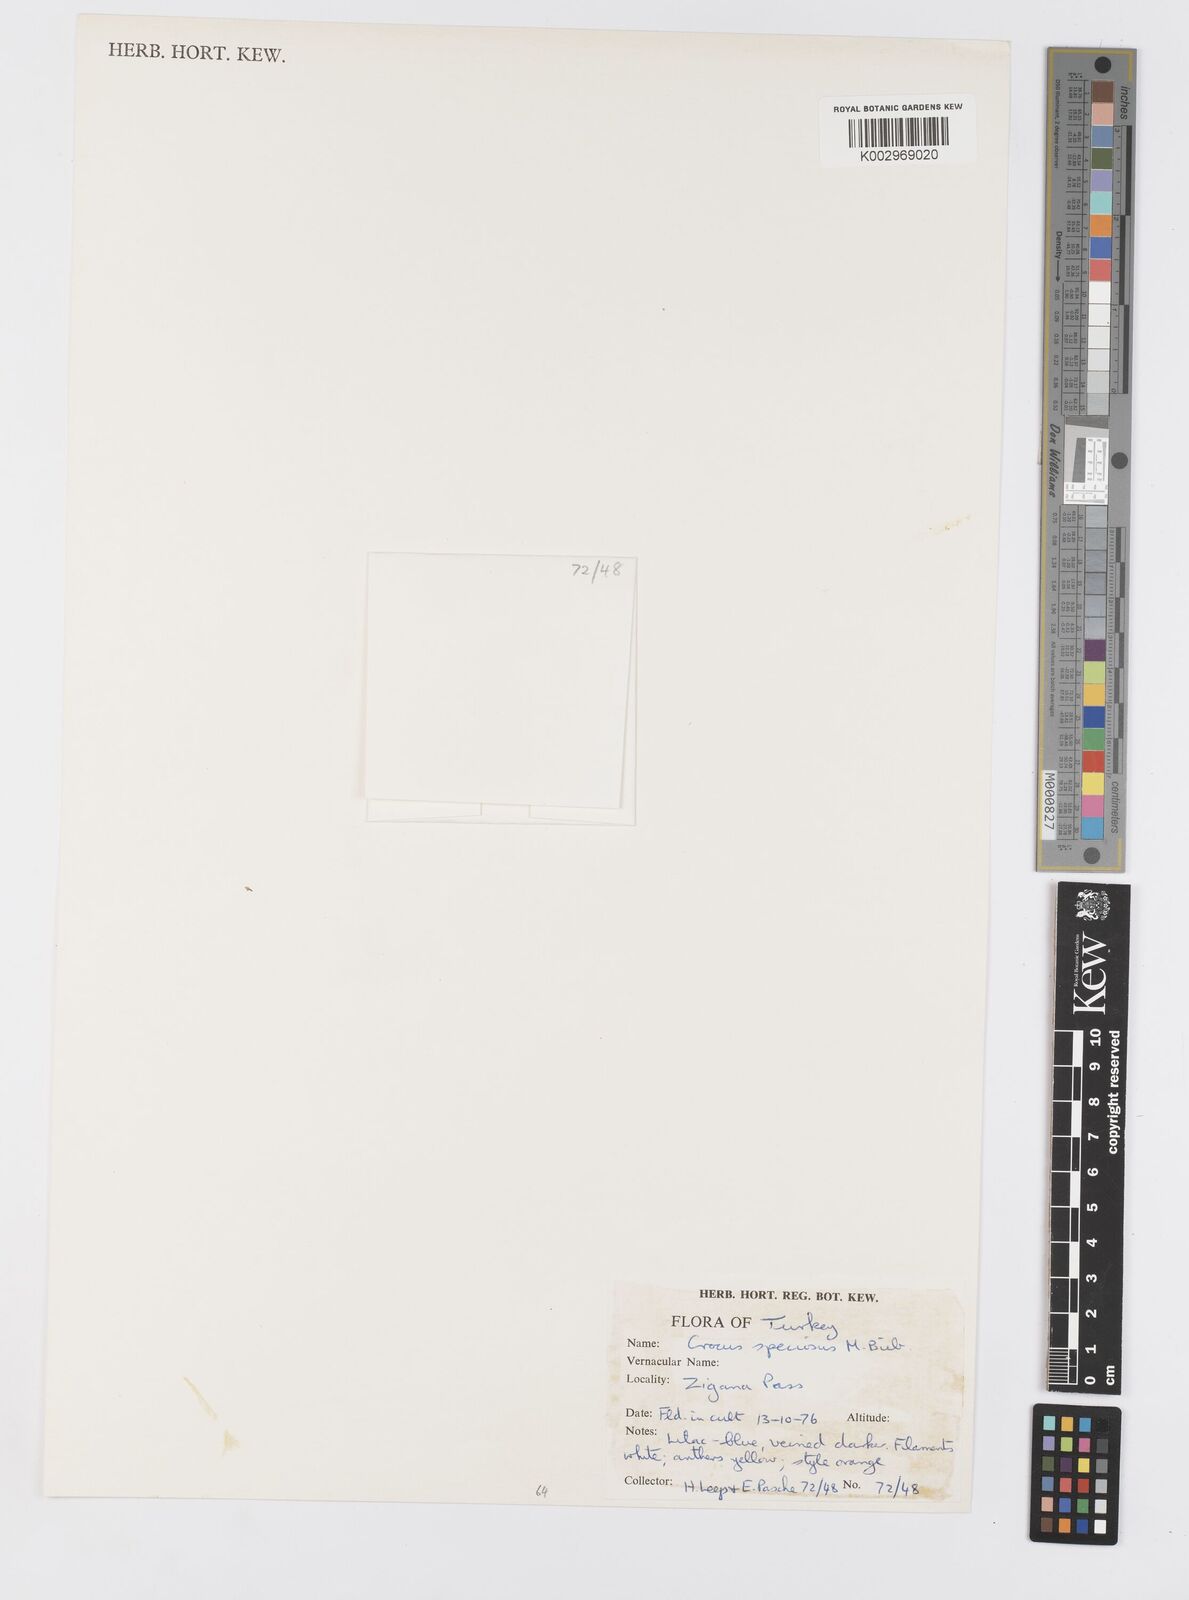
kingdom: Plantae
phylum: Tracheophyta
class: Liliopsida
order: Asparagales
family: Iridaceae
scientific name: Iridaceae
